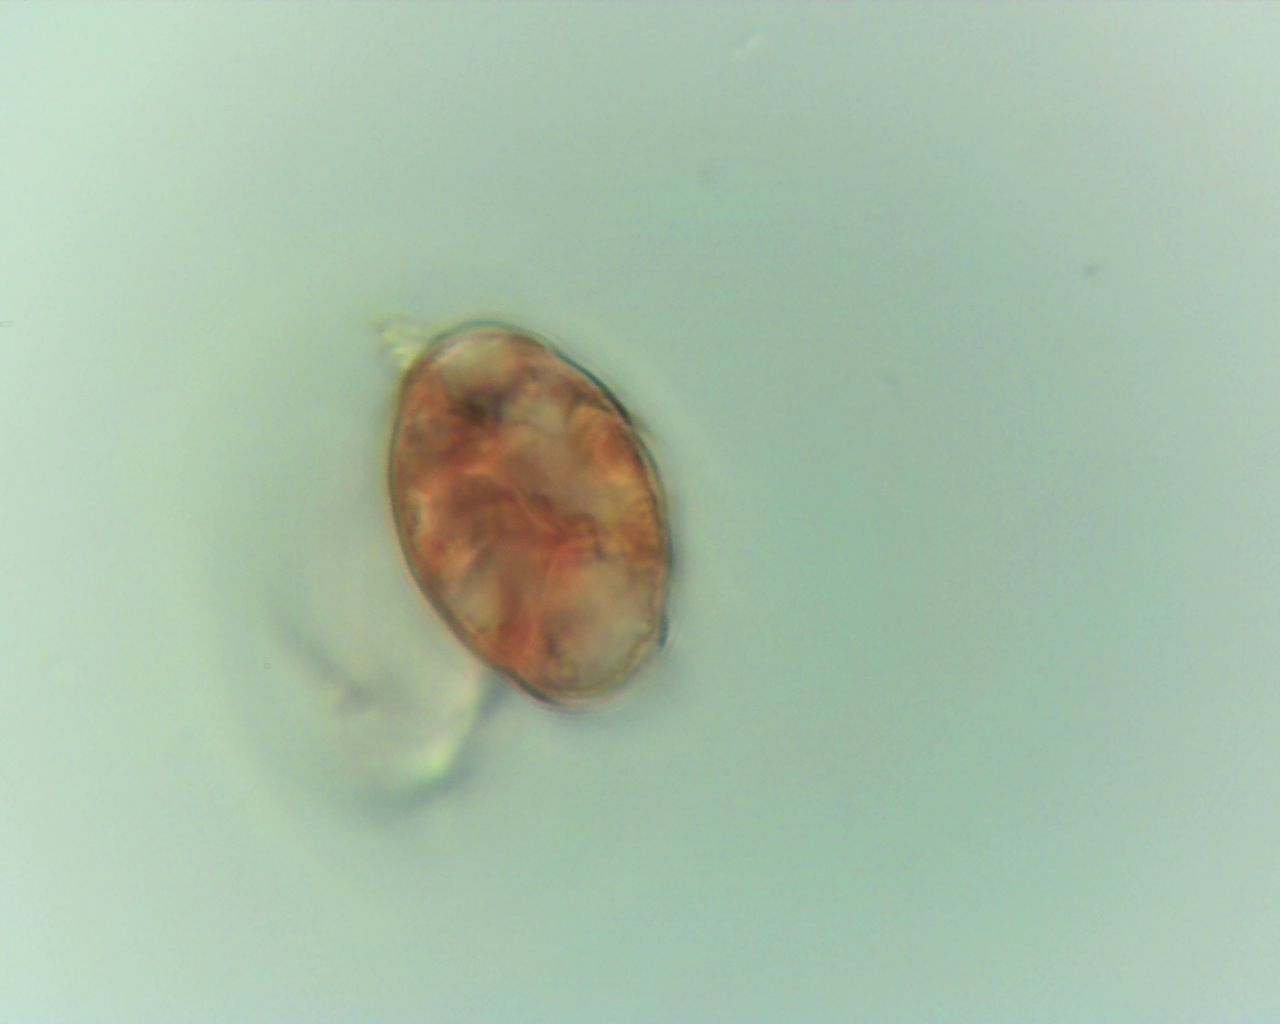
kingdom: Fungi
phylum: Ascomycota
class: Leotiomycetes
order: Helotiales
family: Erysiphaceae
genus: Podosphaera
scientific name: Podosphaera epilobii
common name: dueurt-meldug
